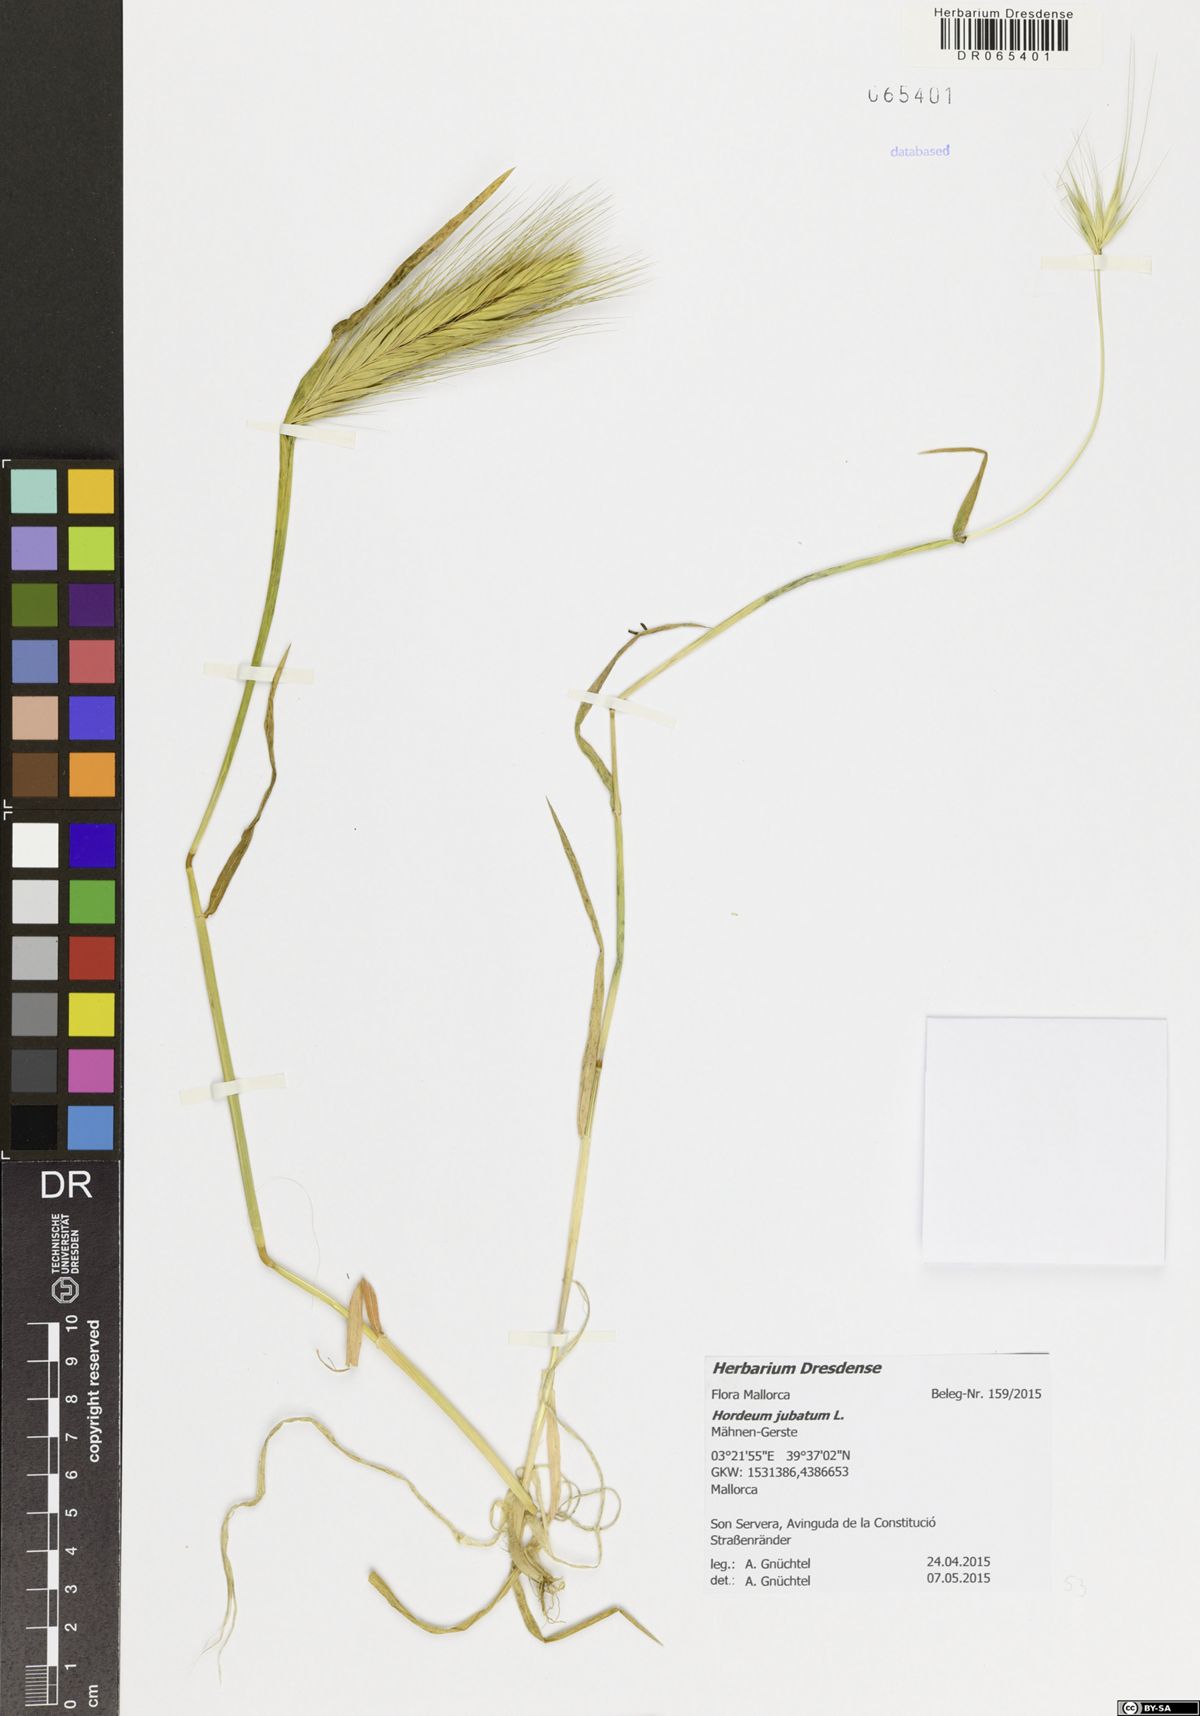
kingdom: Plantae
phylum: Tracheophyta
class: Liliopsida
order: Poales
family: Poaceae
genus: Hordeum
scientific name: Hordeum jubatum
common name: Foxtail barley
